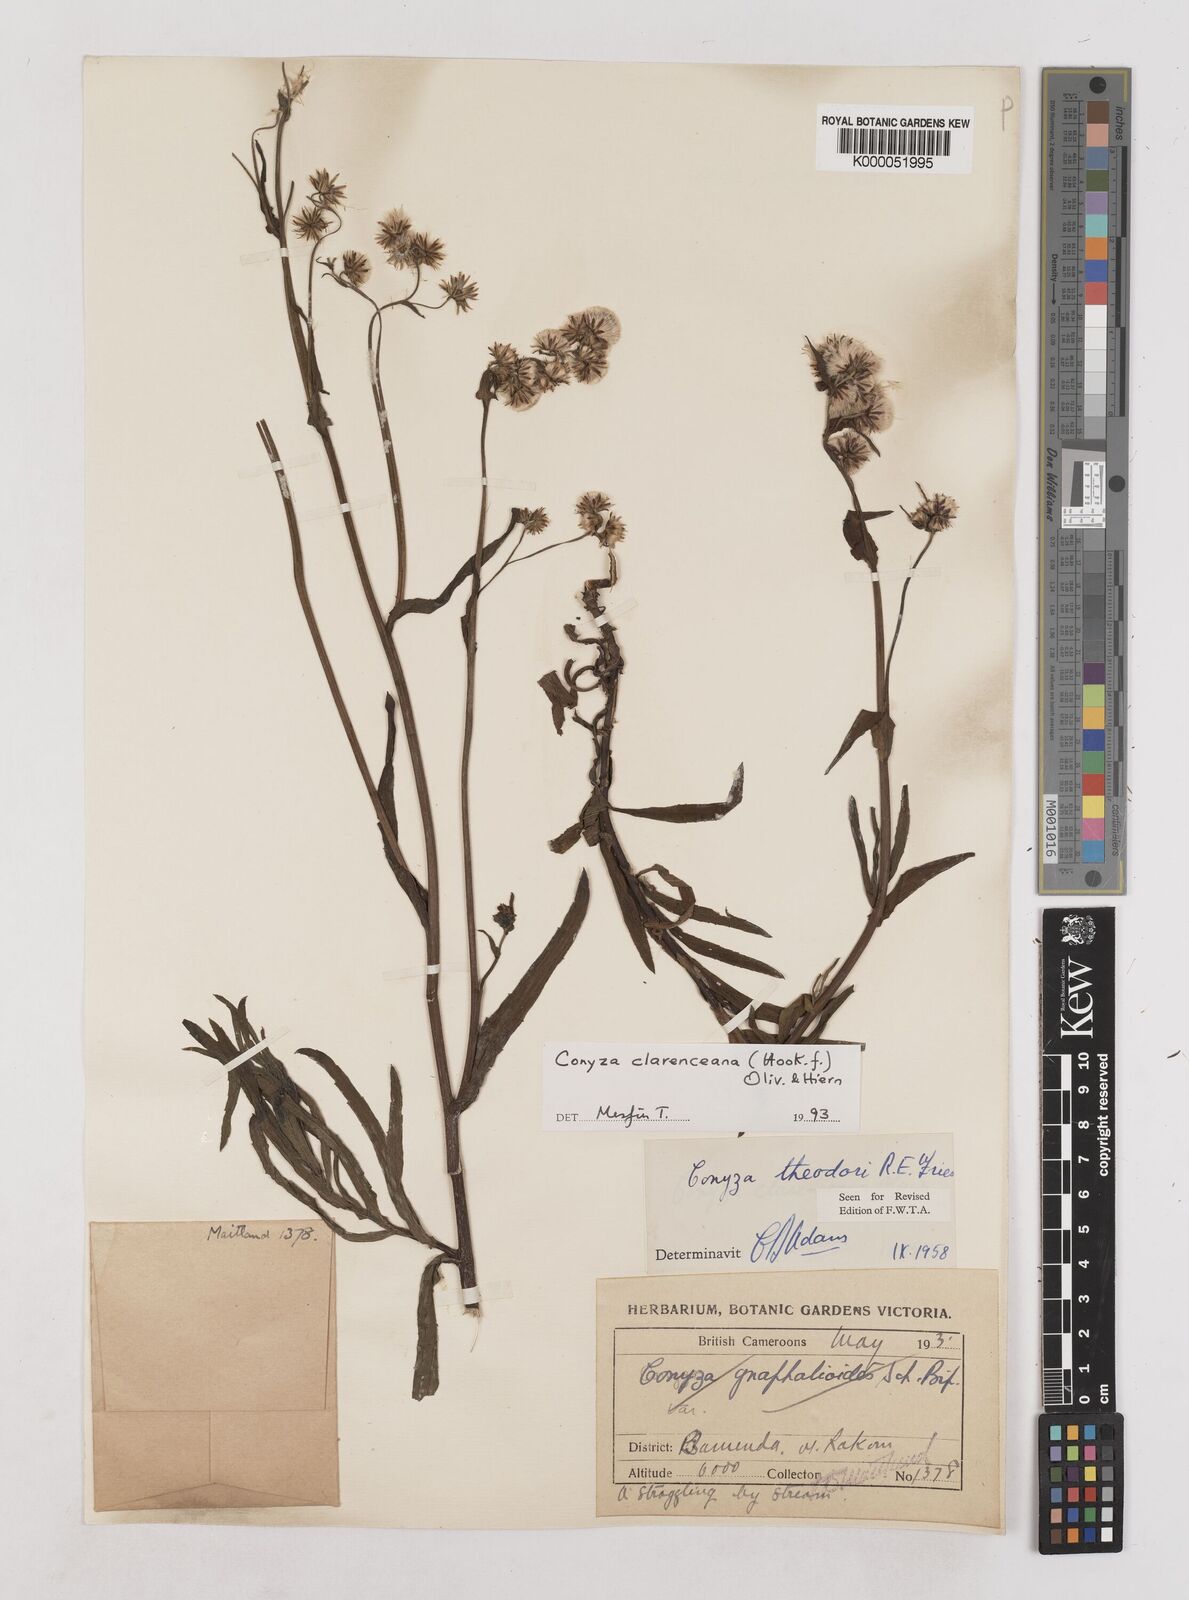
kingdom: Plantae
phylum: Tracheophyta
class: Magnoliopsida
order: Asterales
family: Asteraceae
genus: Conyza
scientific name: Conyza baumii
